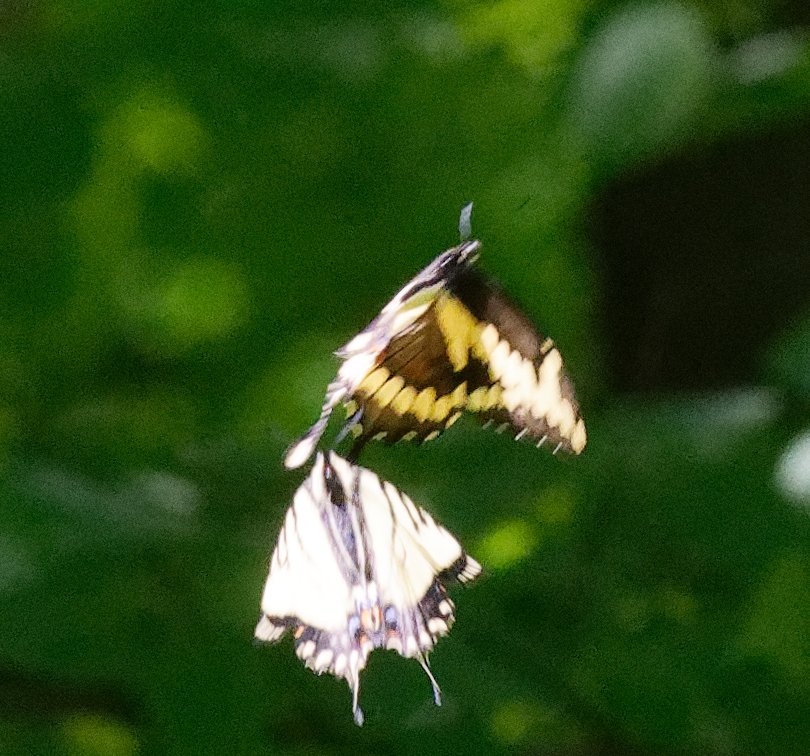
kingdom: Animalia
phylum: Arthropoda
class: Insecta
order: Lepidoptera
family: Papilionidae
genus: Papilio
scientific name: Papilio cresphontes
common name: Eastern Giant Swallowtail
